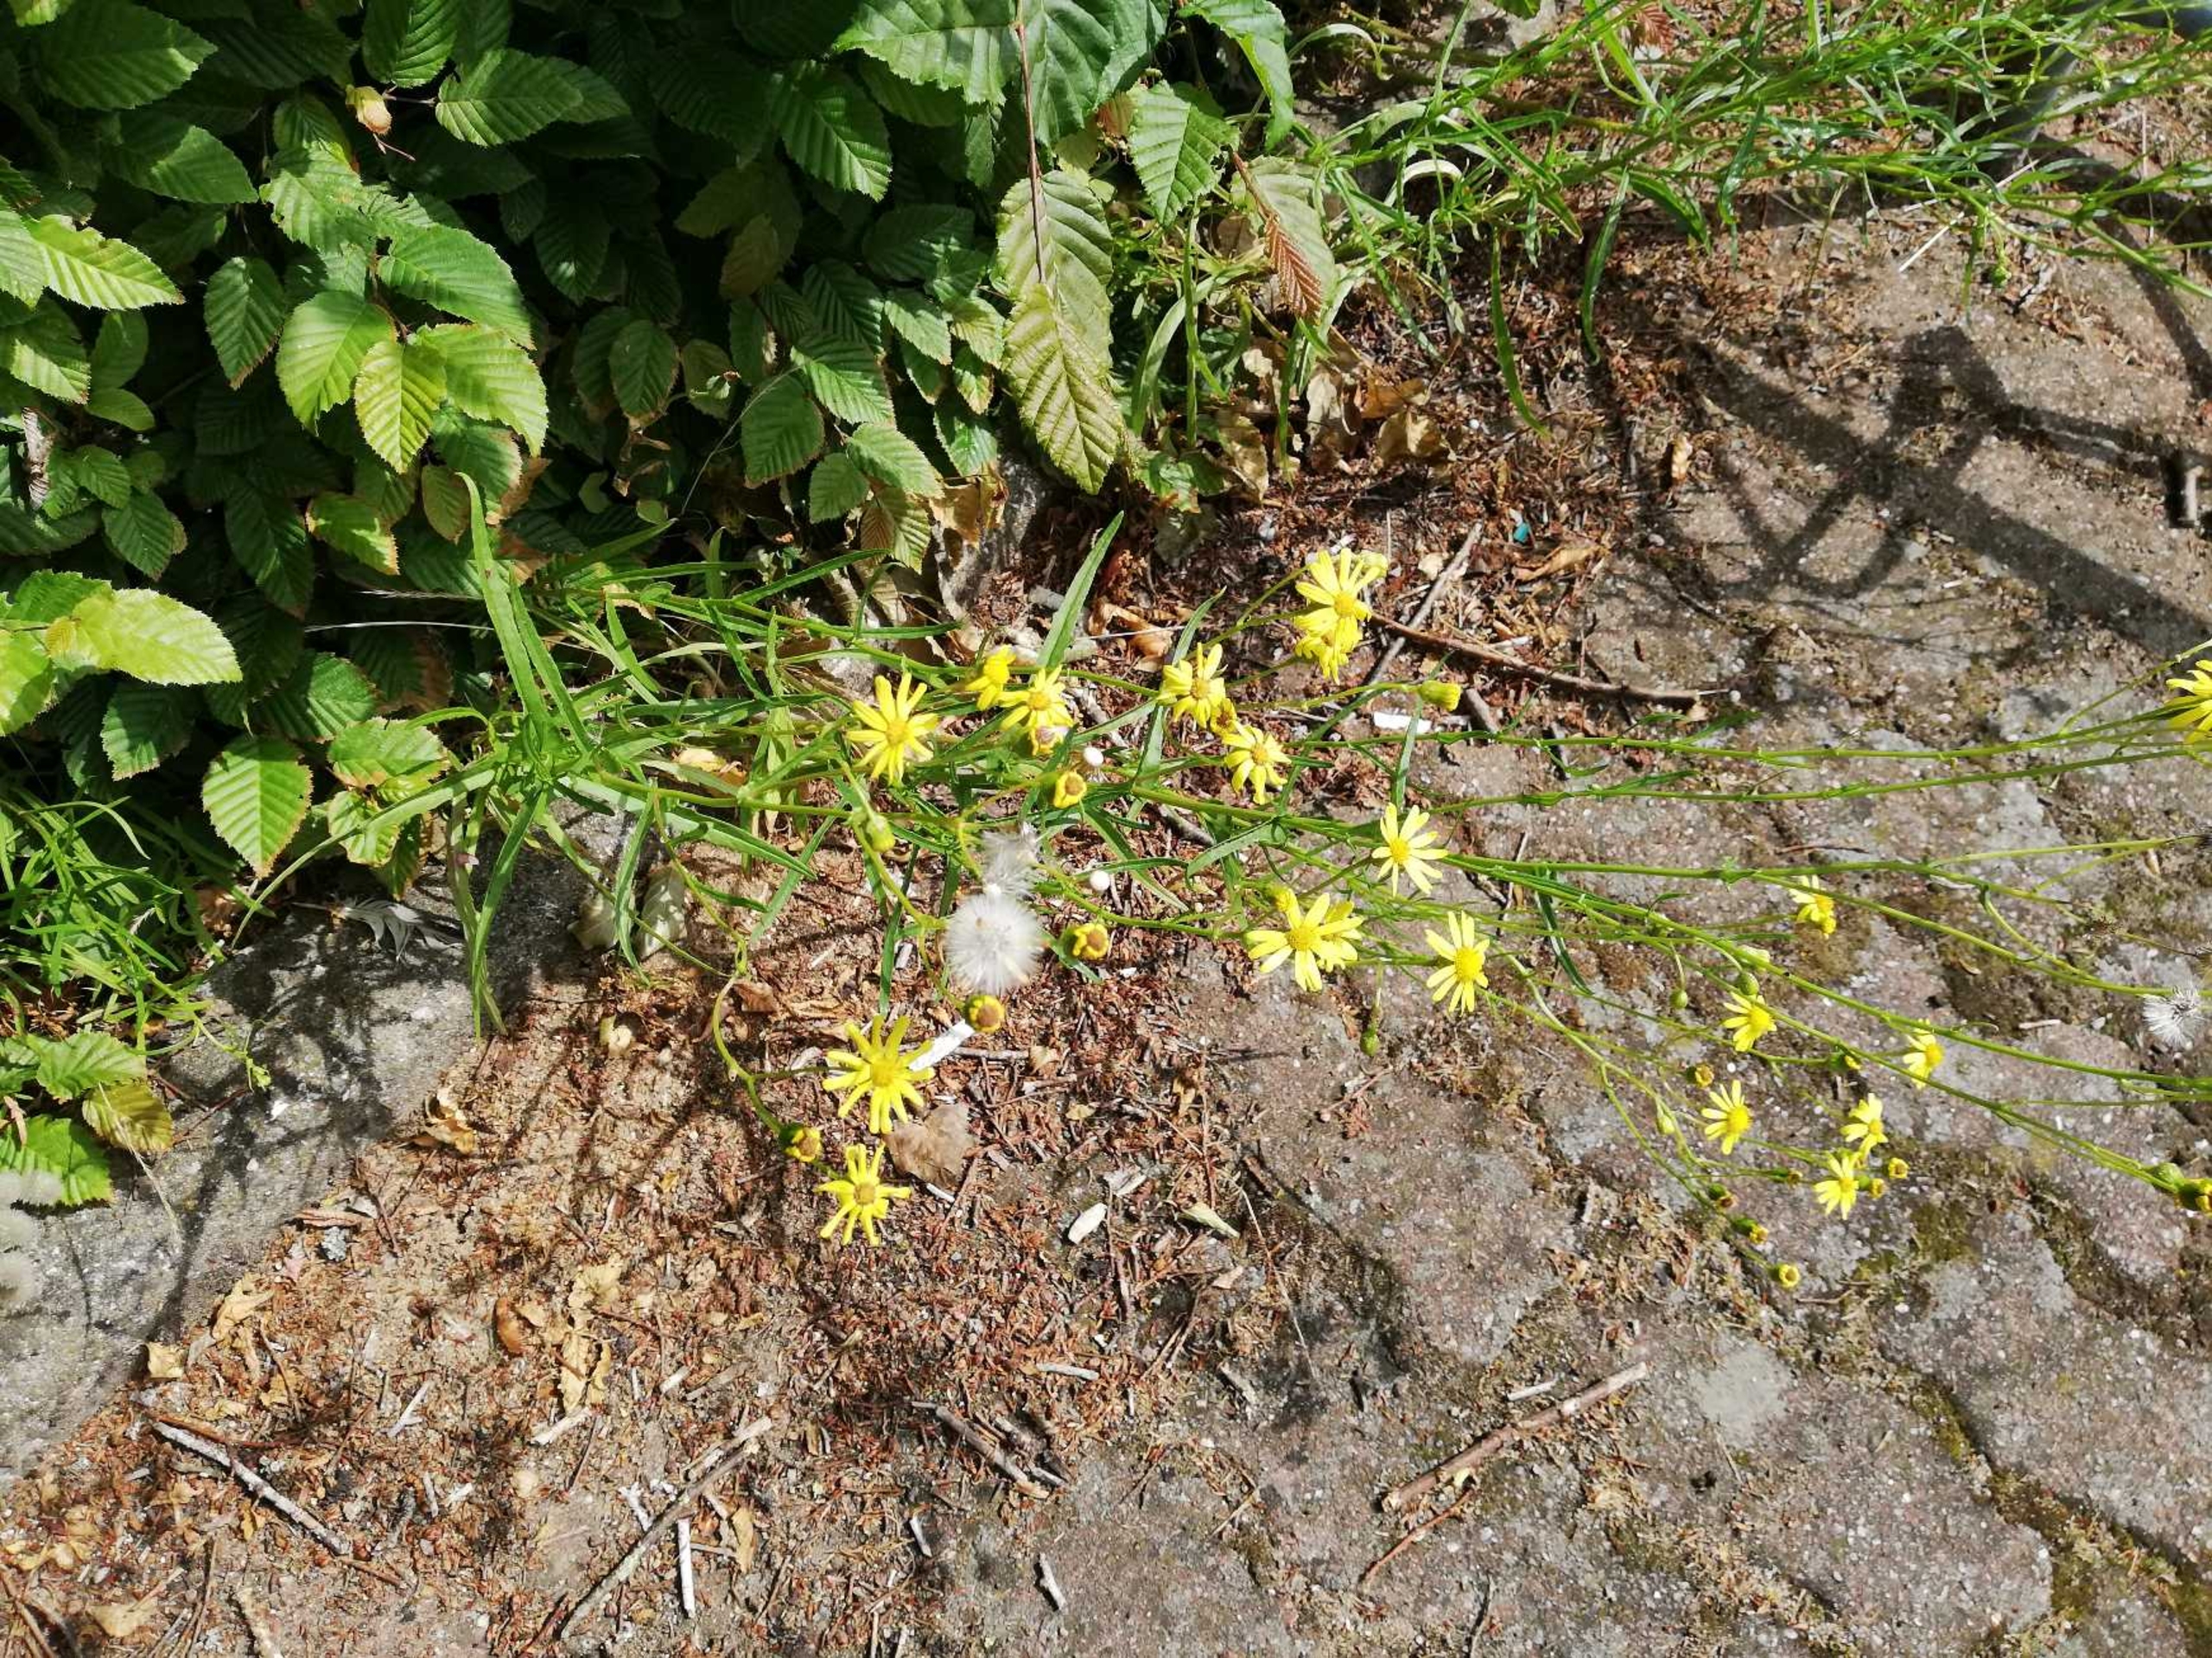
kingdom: Plantae
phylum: Tracheophyta
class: Magnoliopsida
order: Asterales
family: Asteraceae
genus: Senecio
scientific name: Senecio inaequidens
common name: Smalbladet brandbæger
